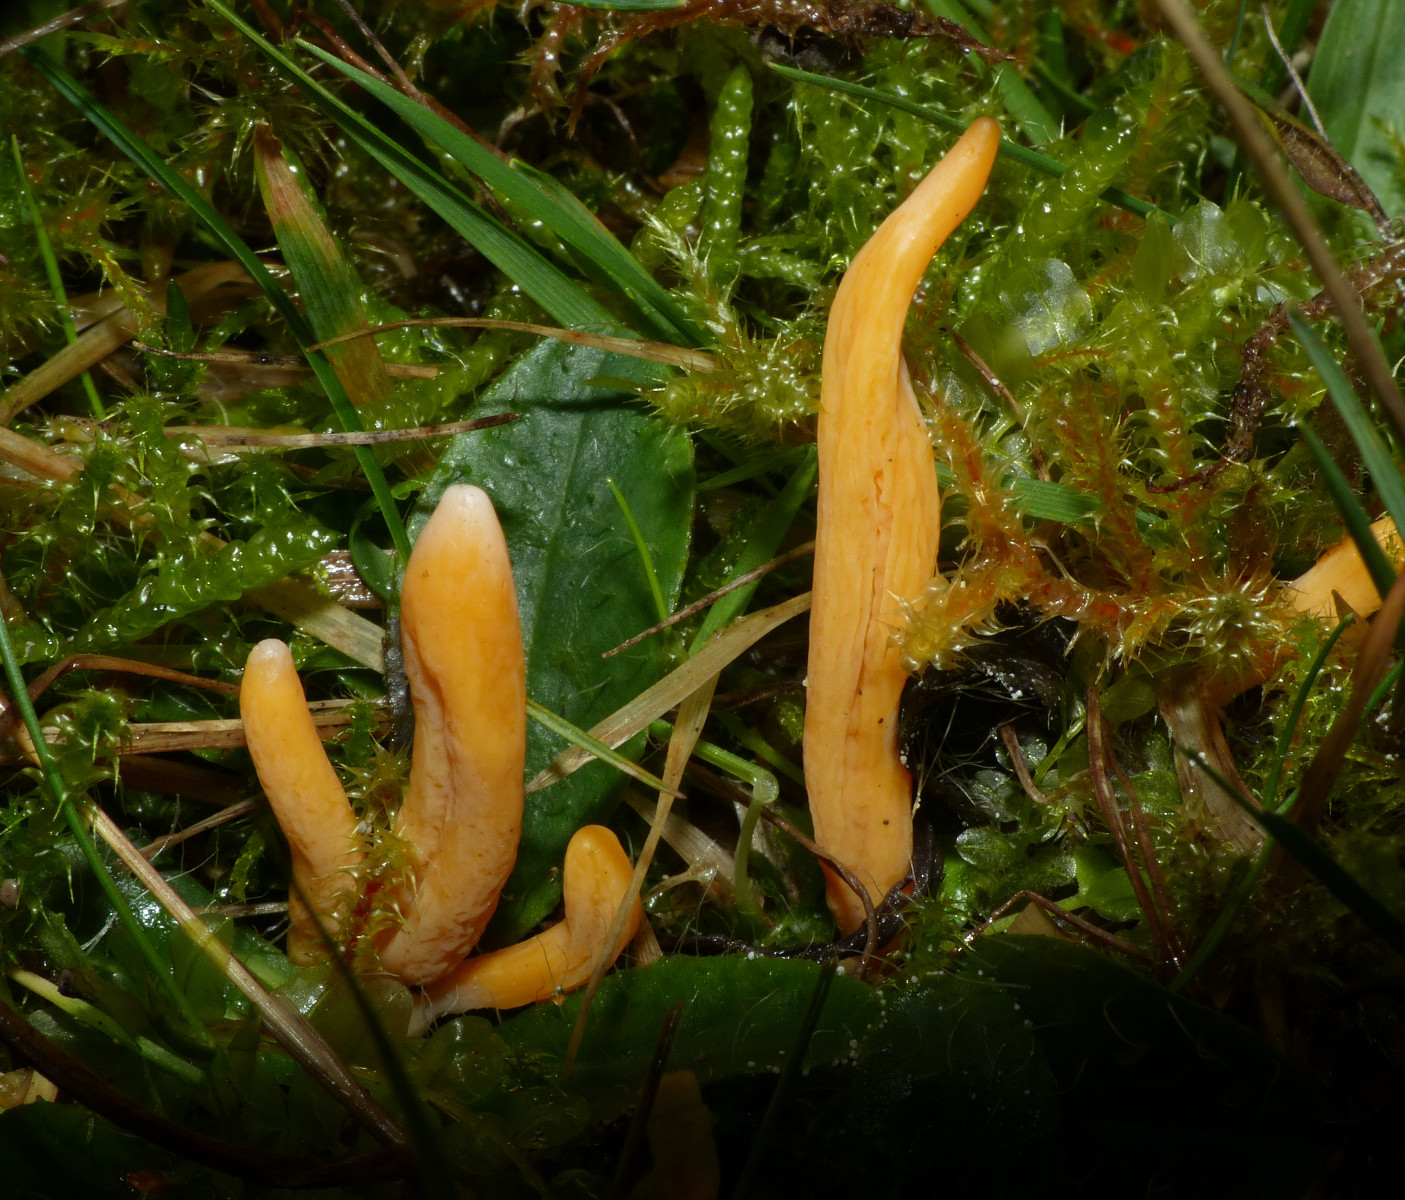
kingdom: Fungi
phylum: Basidiomycota
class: Agaricomycetes
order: Agaricales
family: Clavariaceae
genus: Clavulinopsis
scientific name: Clavulinopsis luteoalba
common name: abrikos-køllesvamp
